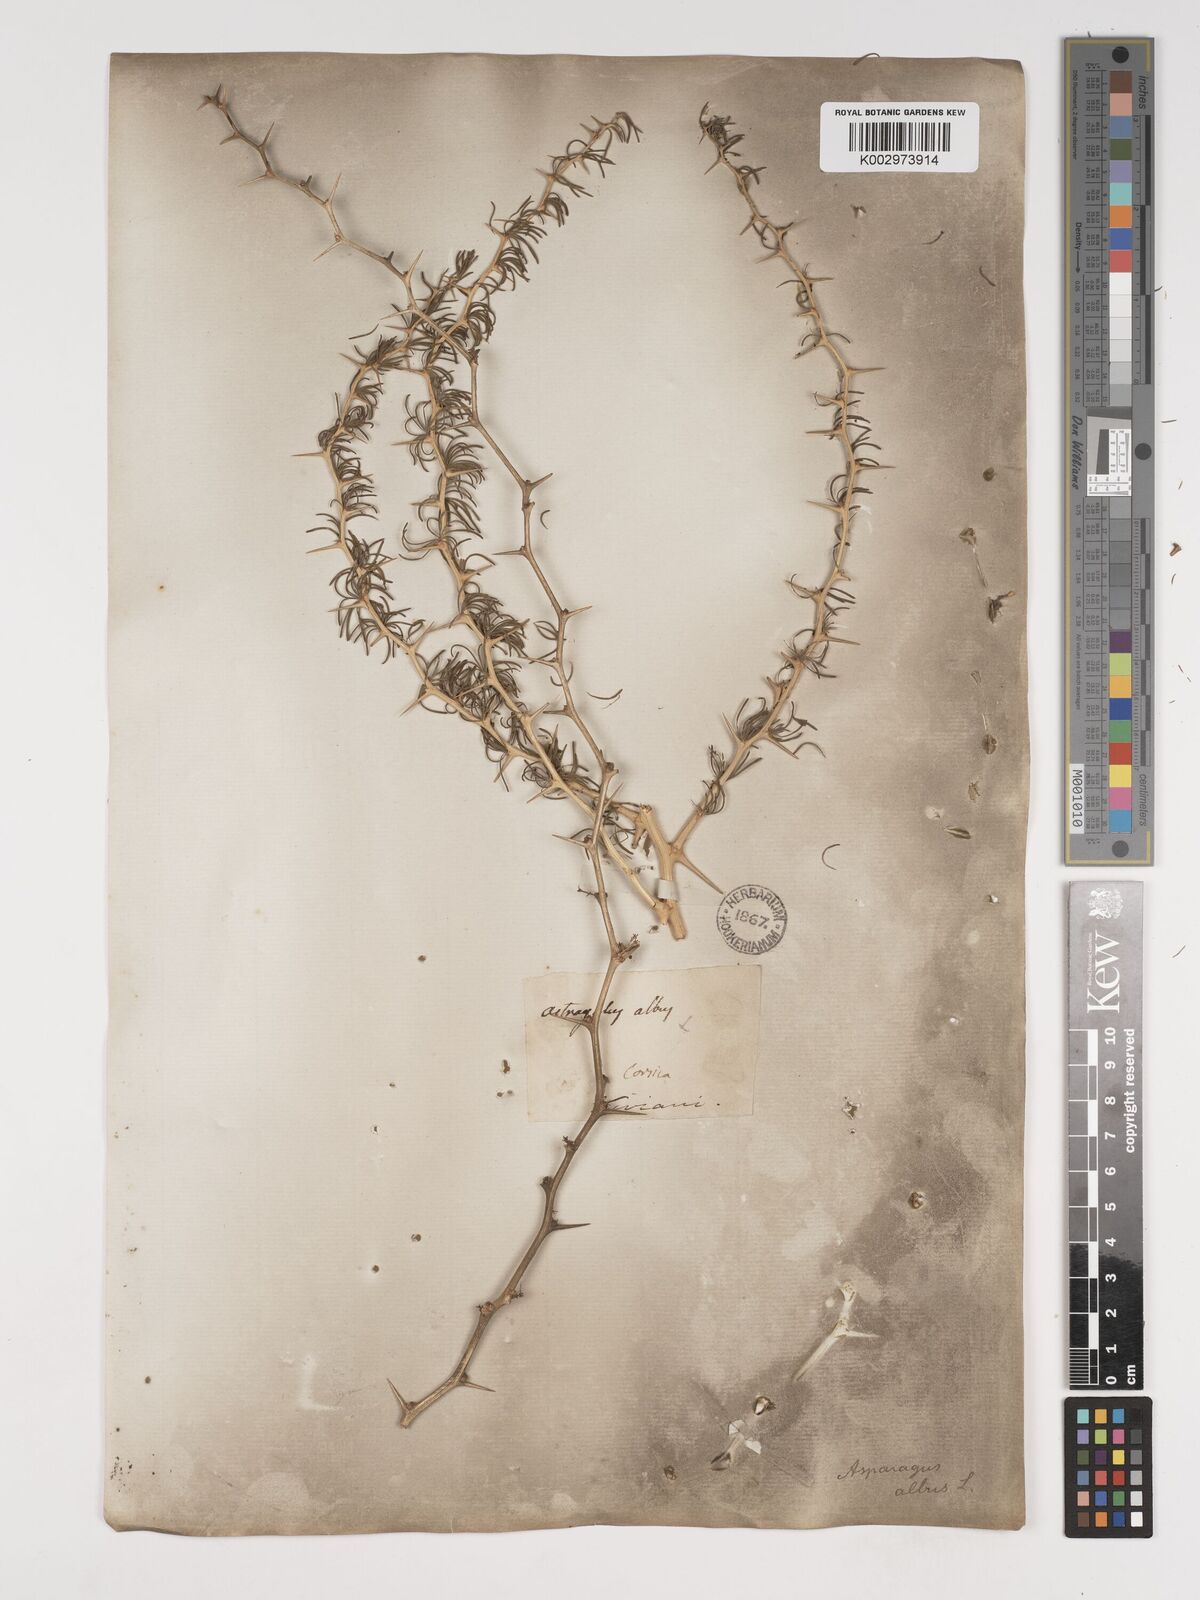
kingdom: Plantae
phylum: Tracheophyta
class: Liliopsida
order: Asparagales
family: Asparagaceae
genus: Asparagus
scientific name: Asparagus albus
